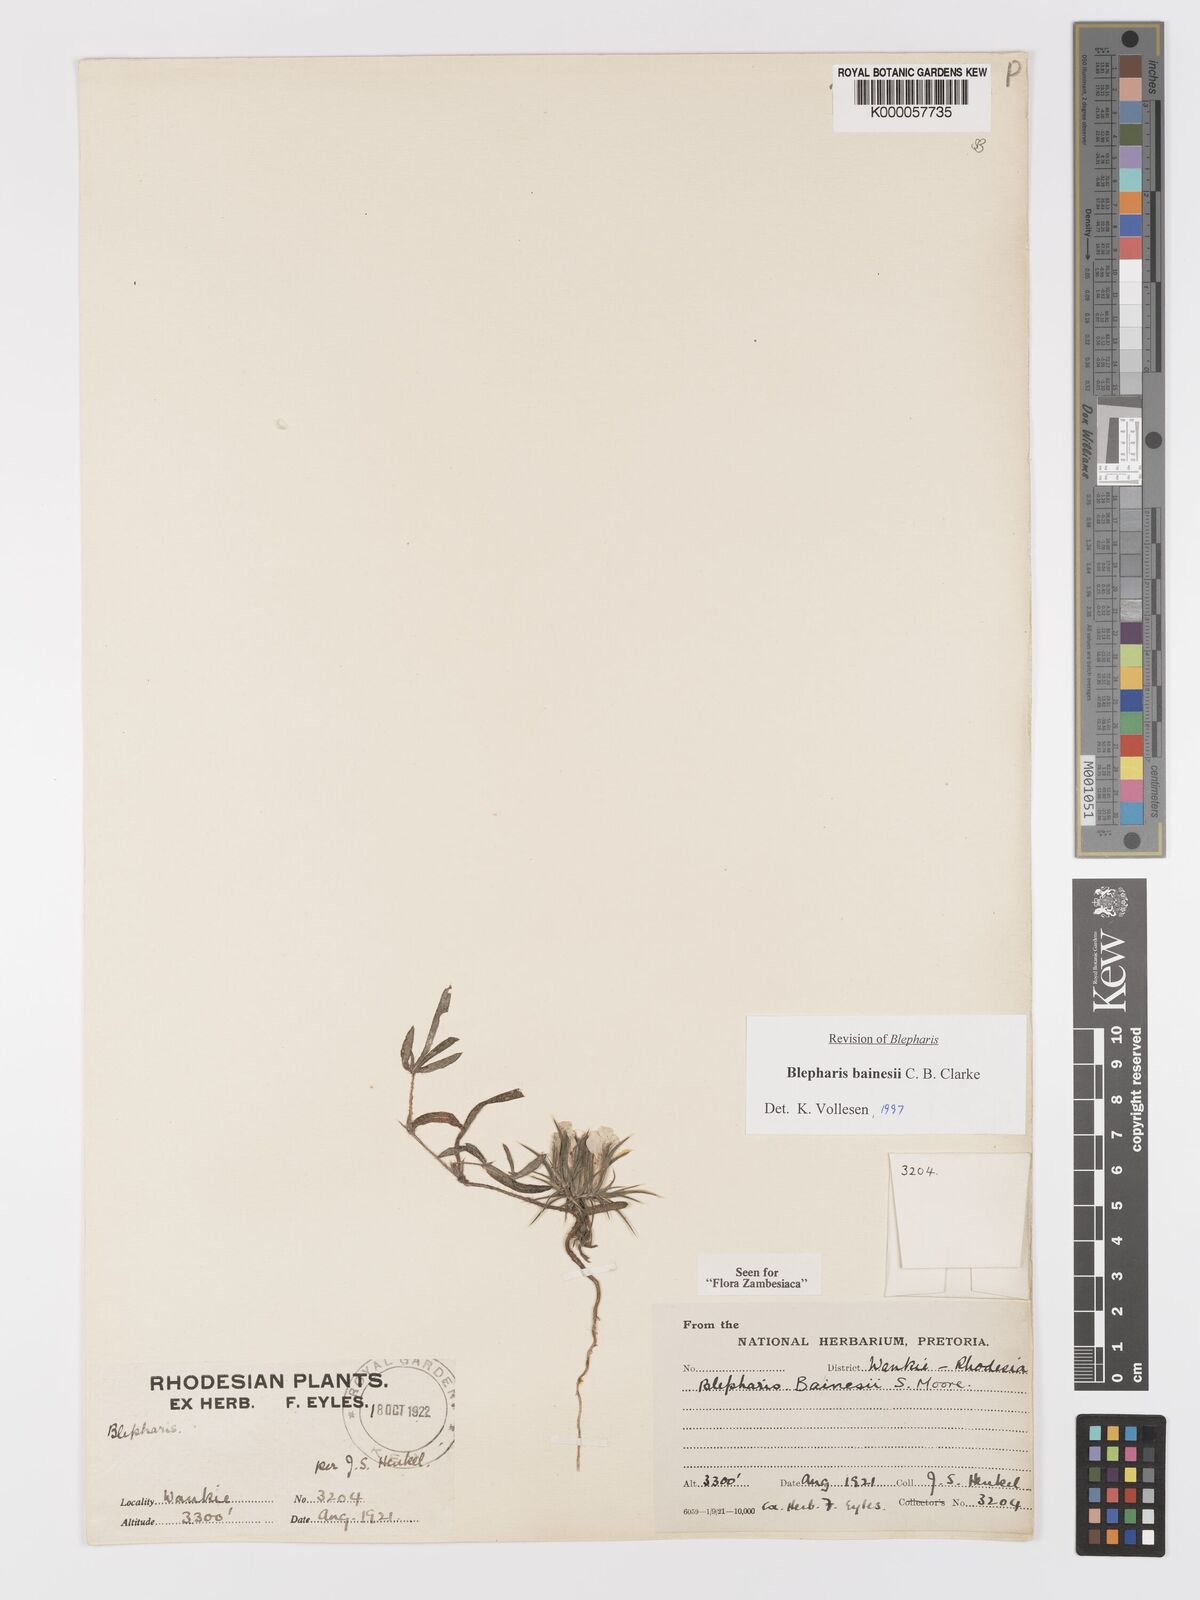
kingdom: Plantae
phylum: Tracheophyta
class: Magnoliopsida
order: Lamiales
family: Acanthaceae
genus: Blepharis
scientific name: Blepharis bainesii
